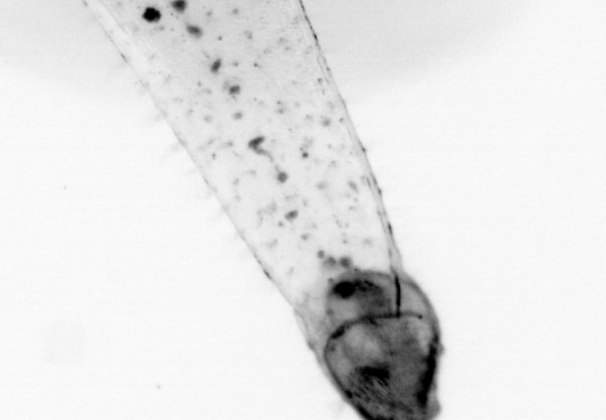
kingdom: Animalia
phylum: Chaetognatha
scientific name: Chaetognatha
